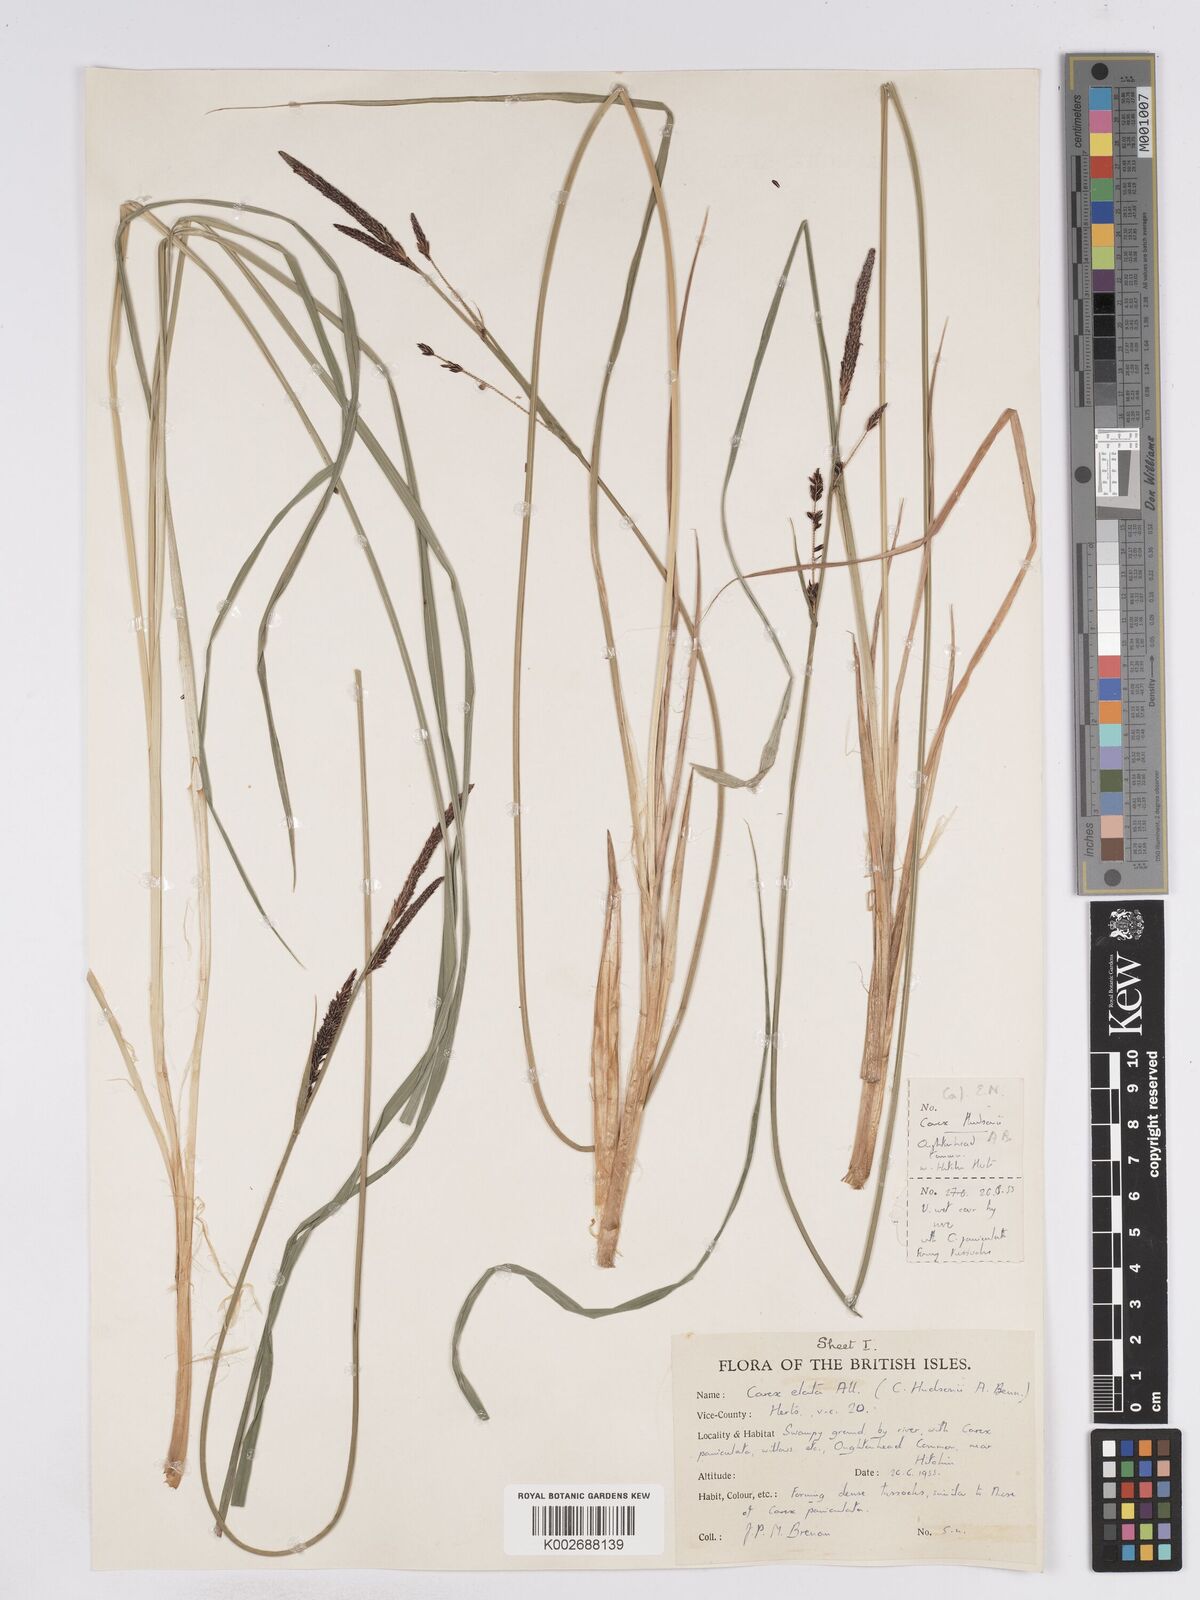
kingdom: Plantae
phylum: Tracheophyta
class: Liliopsida
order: Poales
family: Cyperaceae
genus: Carex
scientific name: Carex elata
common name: Tufted sedge
